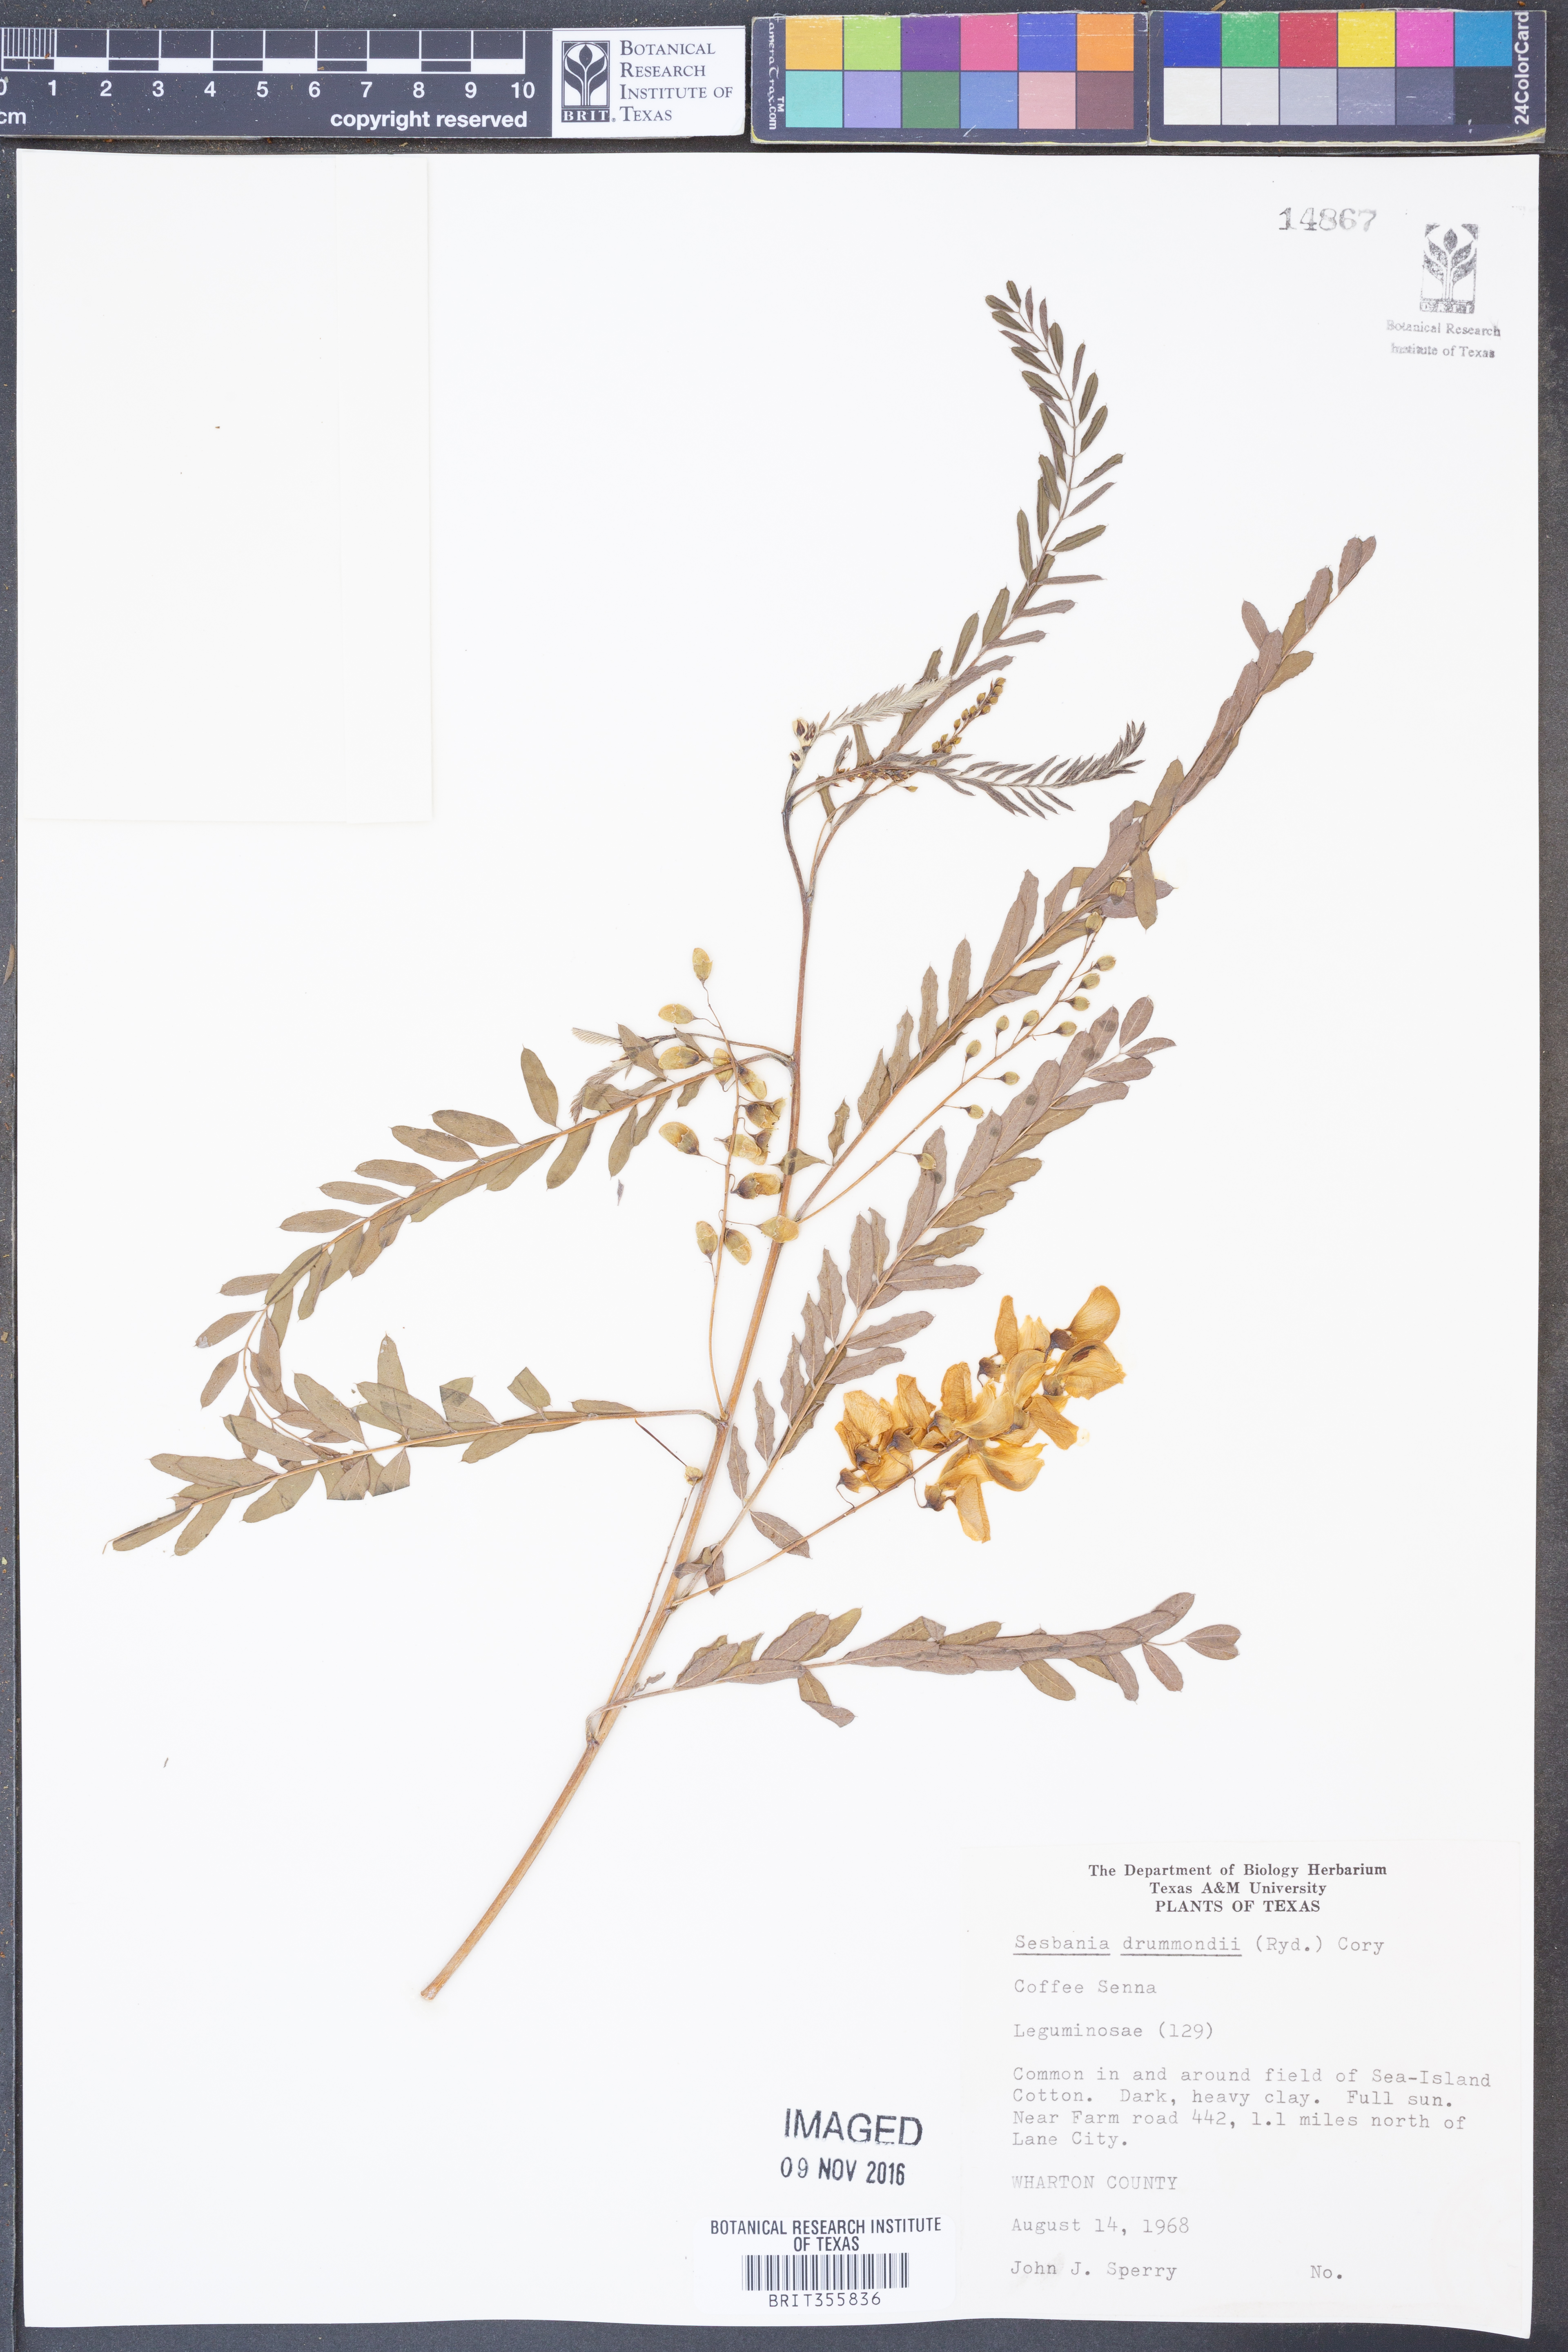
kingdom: Plantae
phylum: Tracheophyta
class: Magnoliopsida
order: Fabales
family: Fabaceae
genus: Sesbania
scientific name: Sesbania drummondii
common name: Poison-bean
